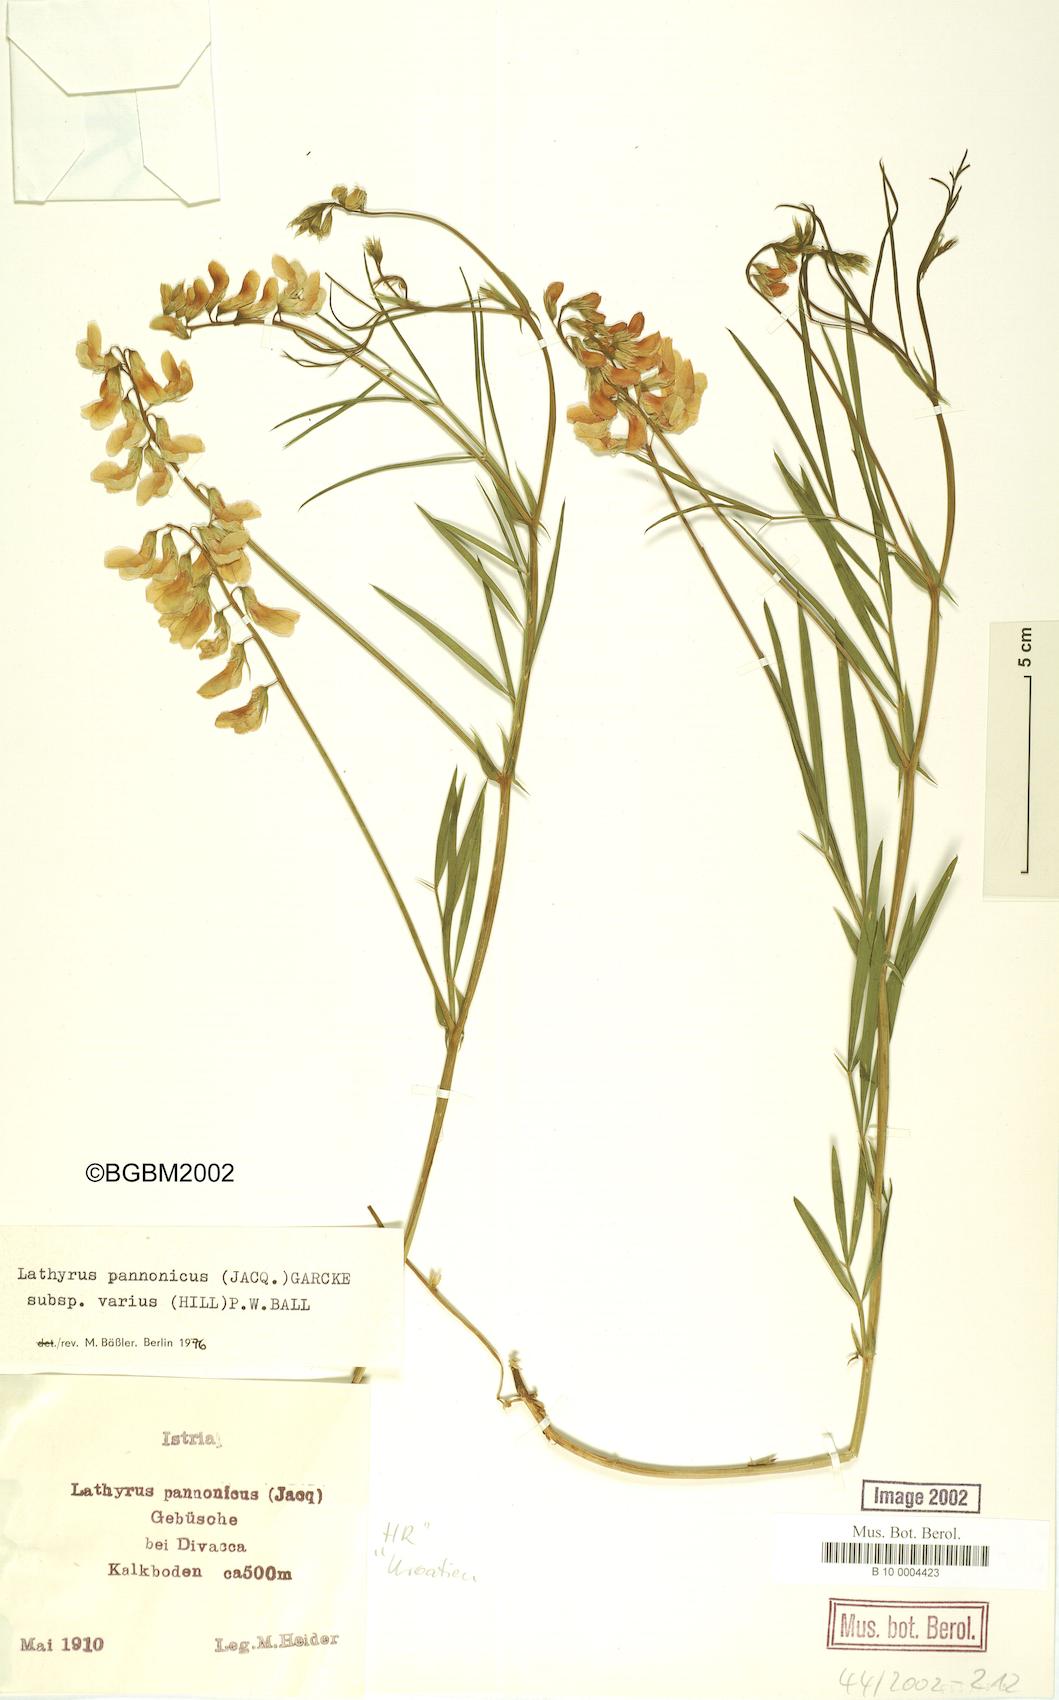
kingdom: Plantae
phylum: Tracheophyta
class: Magnoliopsida
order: Fabales
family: Fabaceae
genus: Lathyrus
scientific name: Lathyrus pannonicus
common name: Pea
